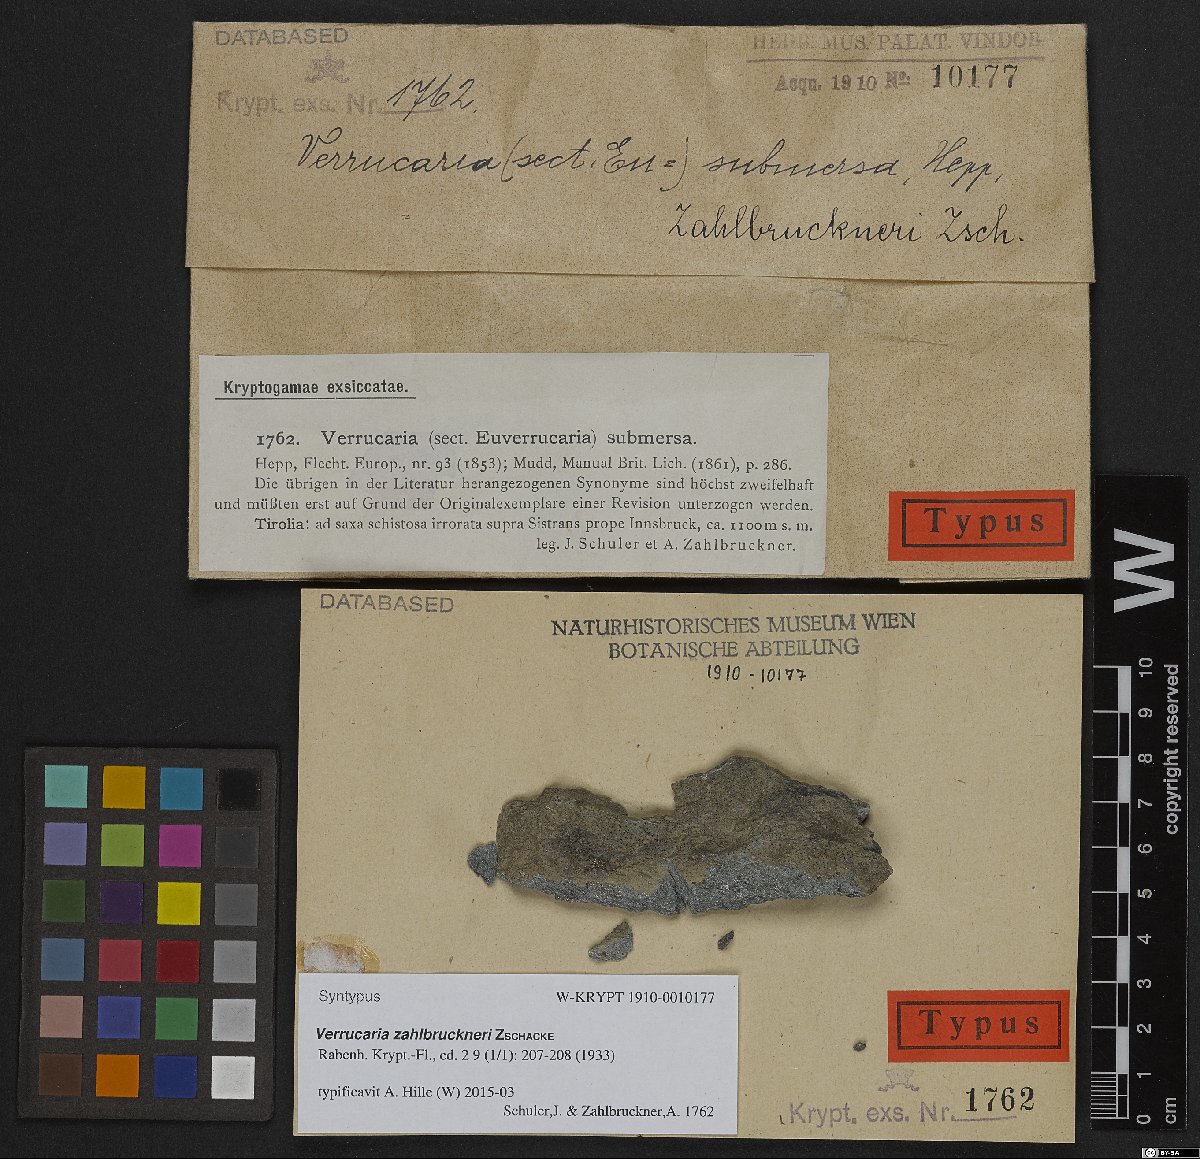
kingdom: Fungi
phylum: Ascomycota
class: Eurotiomycetes
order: Verrucariales
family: Verrucariaceae
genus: Verrucaria
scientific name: Verrucaria praetermissa
